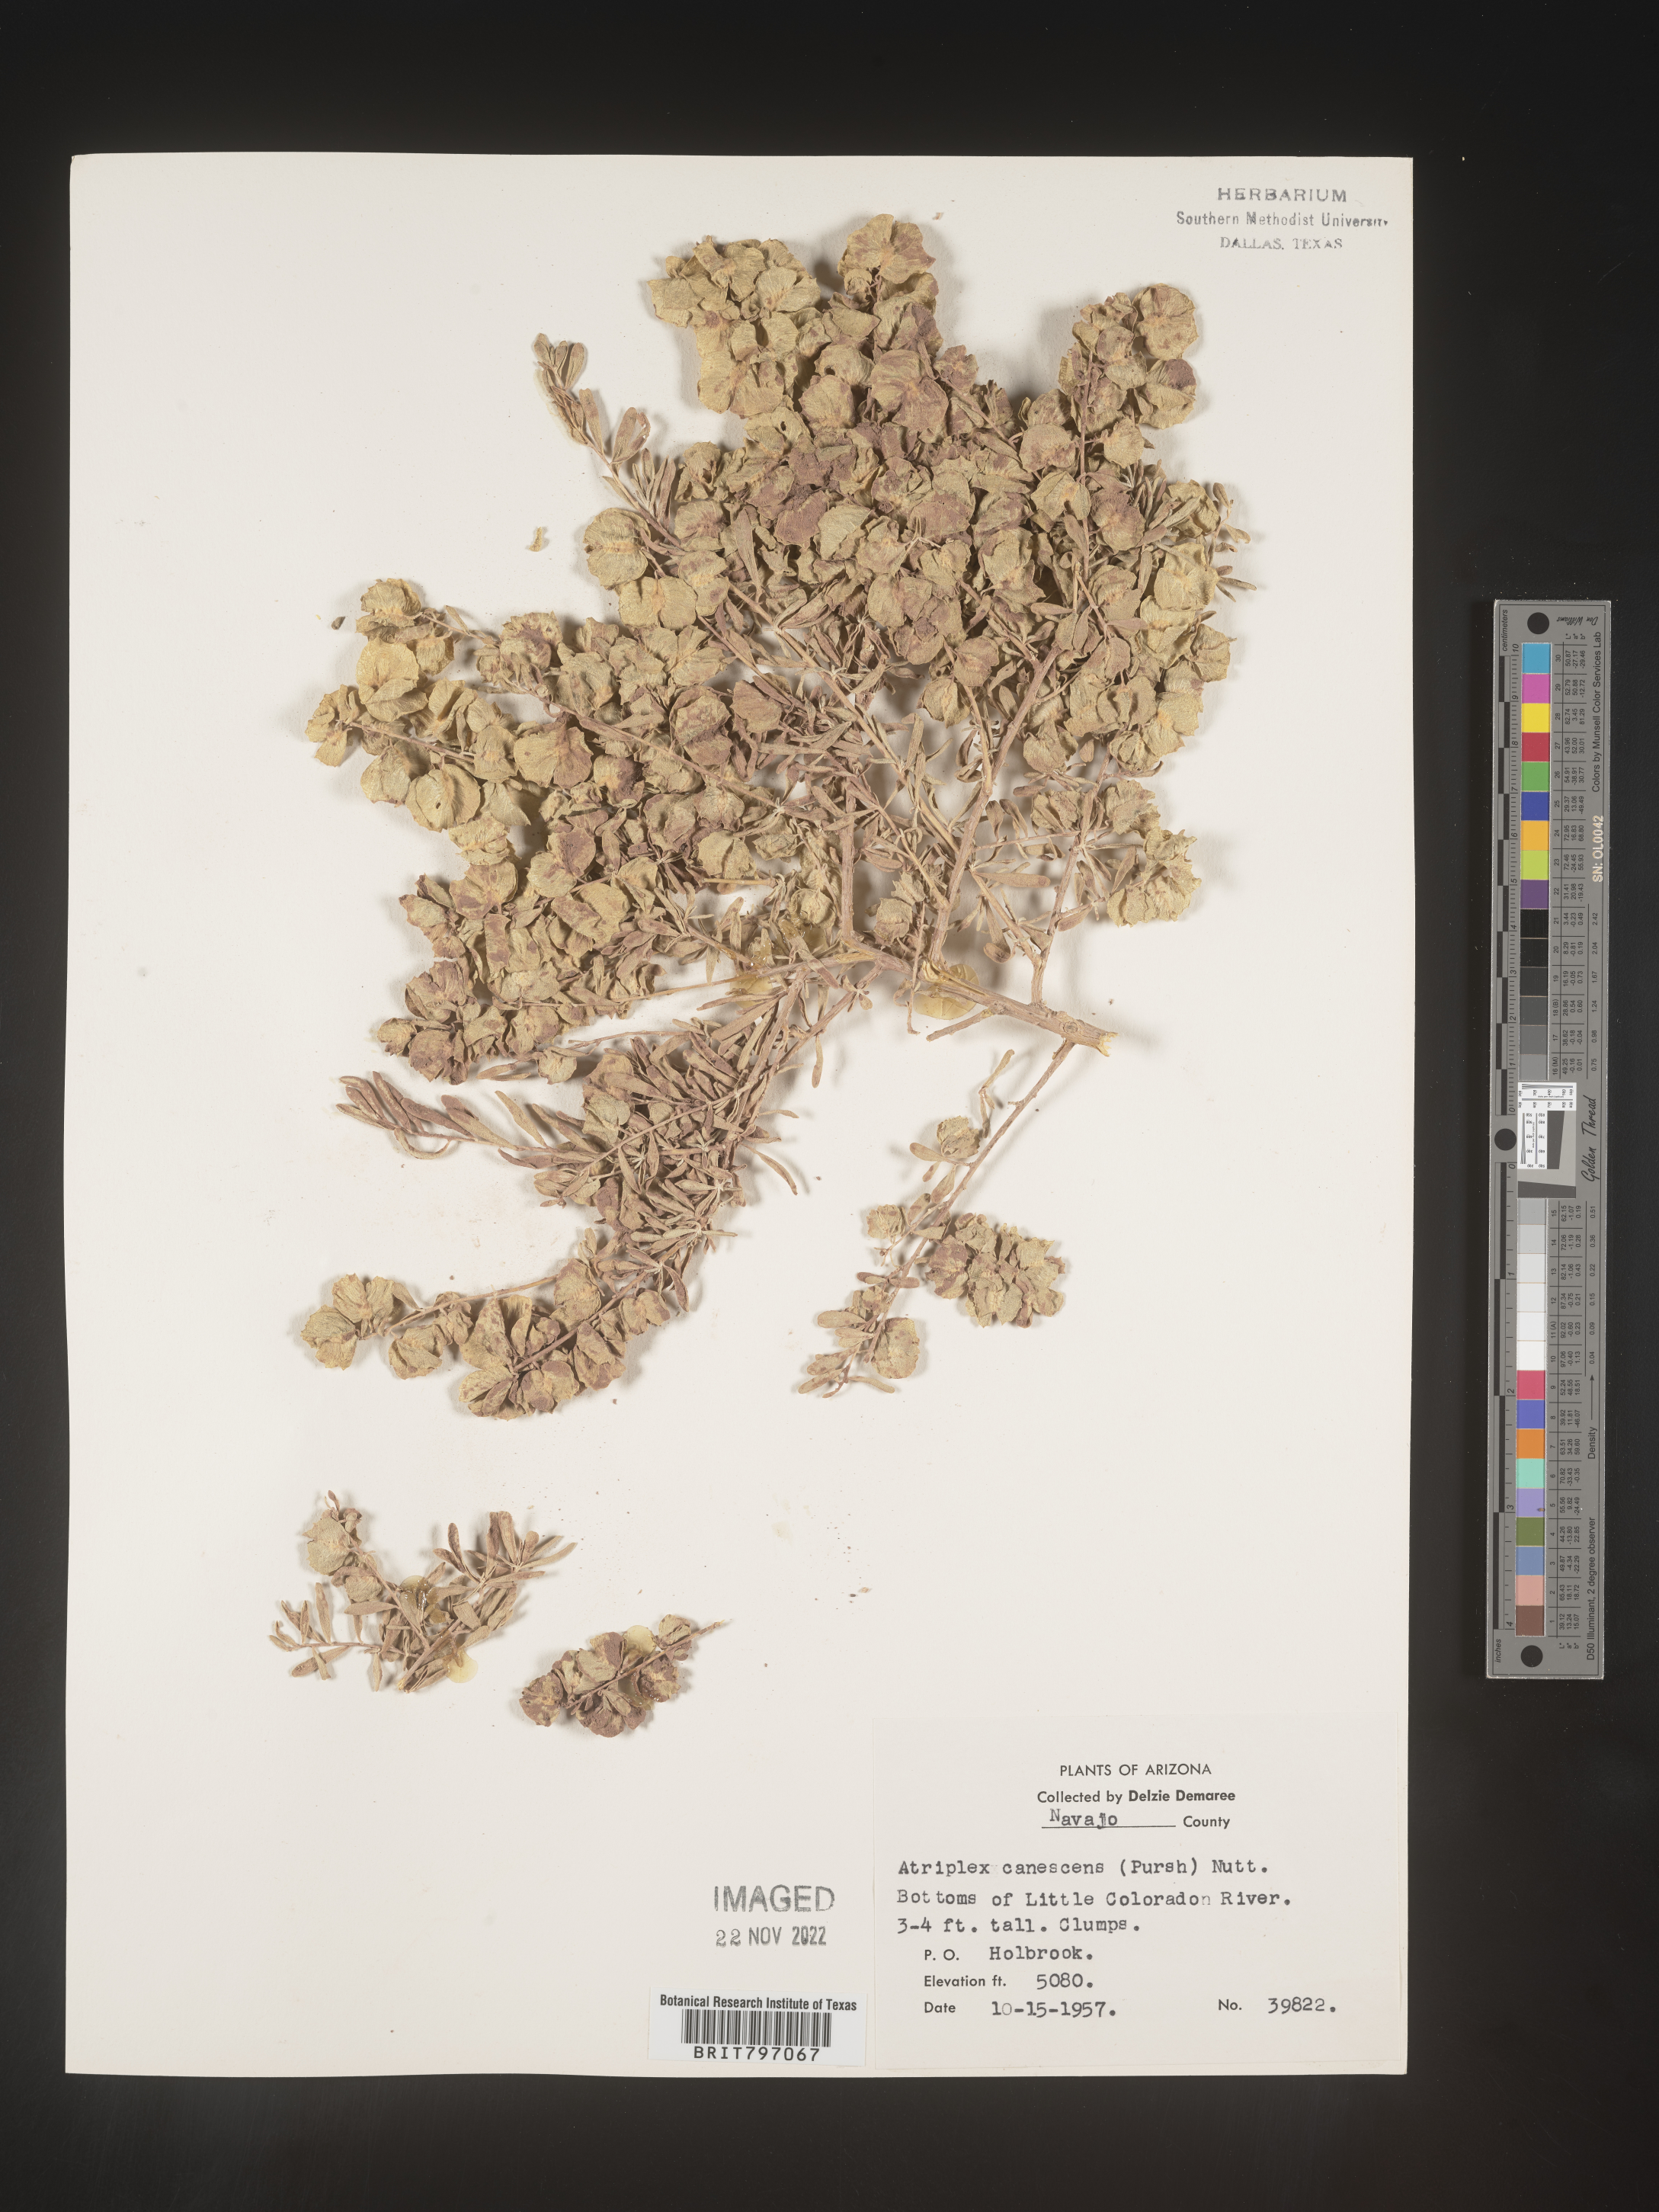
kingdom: Plantae
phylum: Tracheophyta
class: Magnoliopsida
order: Caryophyllales
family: Amaranthaceae
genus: Atriplex
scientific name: Atriplex canescens
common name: Four-wing saltbush
